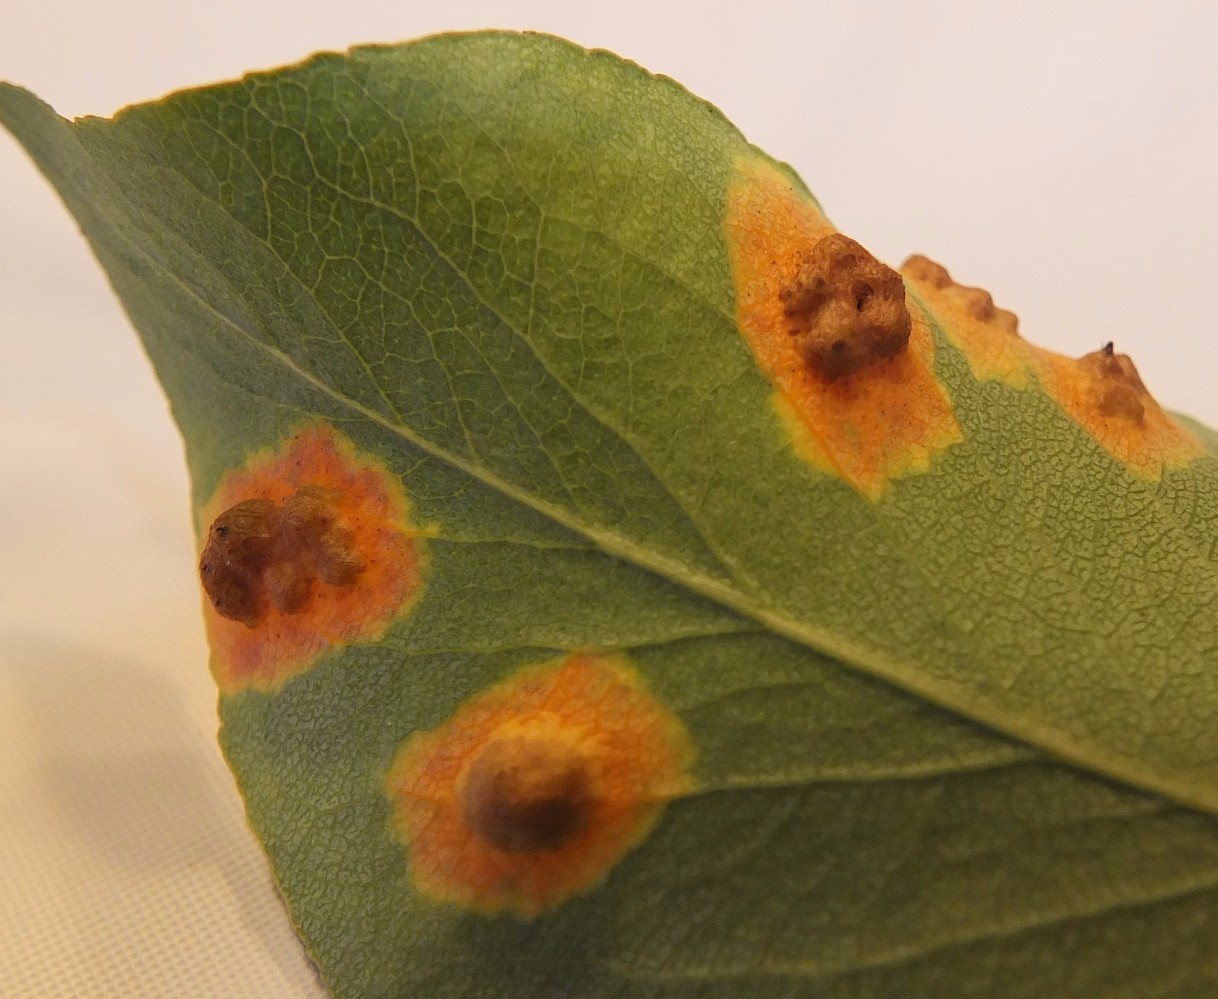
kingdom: Fungi
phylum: Basidiomycota
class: Pucciniomycetes
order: Pucciniales
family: Gymnosporangiaceae
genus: Gymnosporangium
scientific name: Gymnosporangium sabinae
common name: pæregitter-bævrerust
